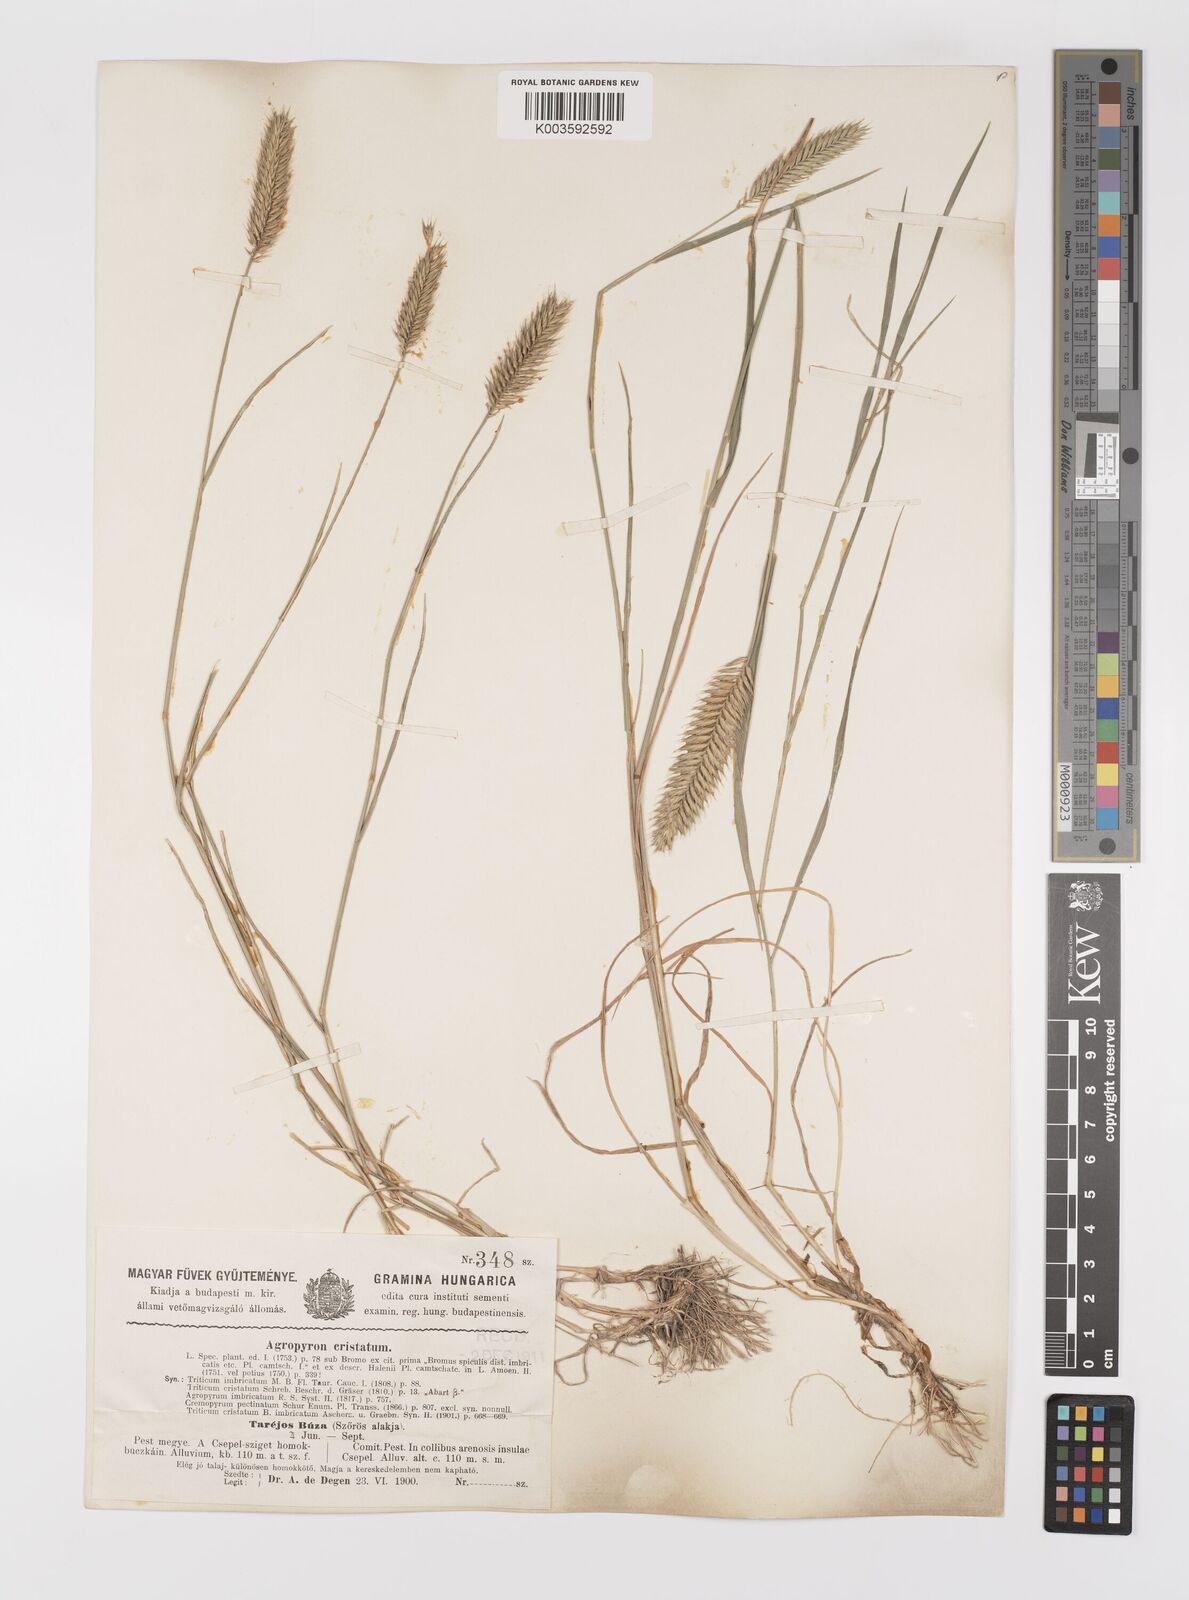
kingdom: Plantae
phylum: Tracheophyta
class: Liliopsida
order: Poales
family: Poaceae
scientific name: Poaceae
